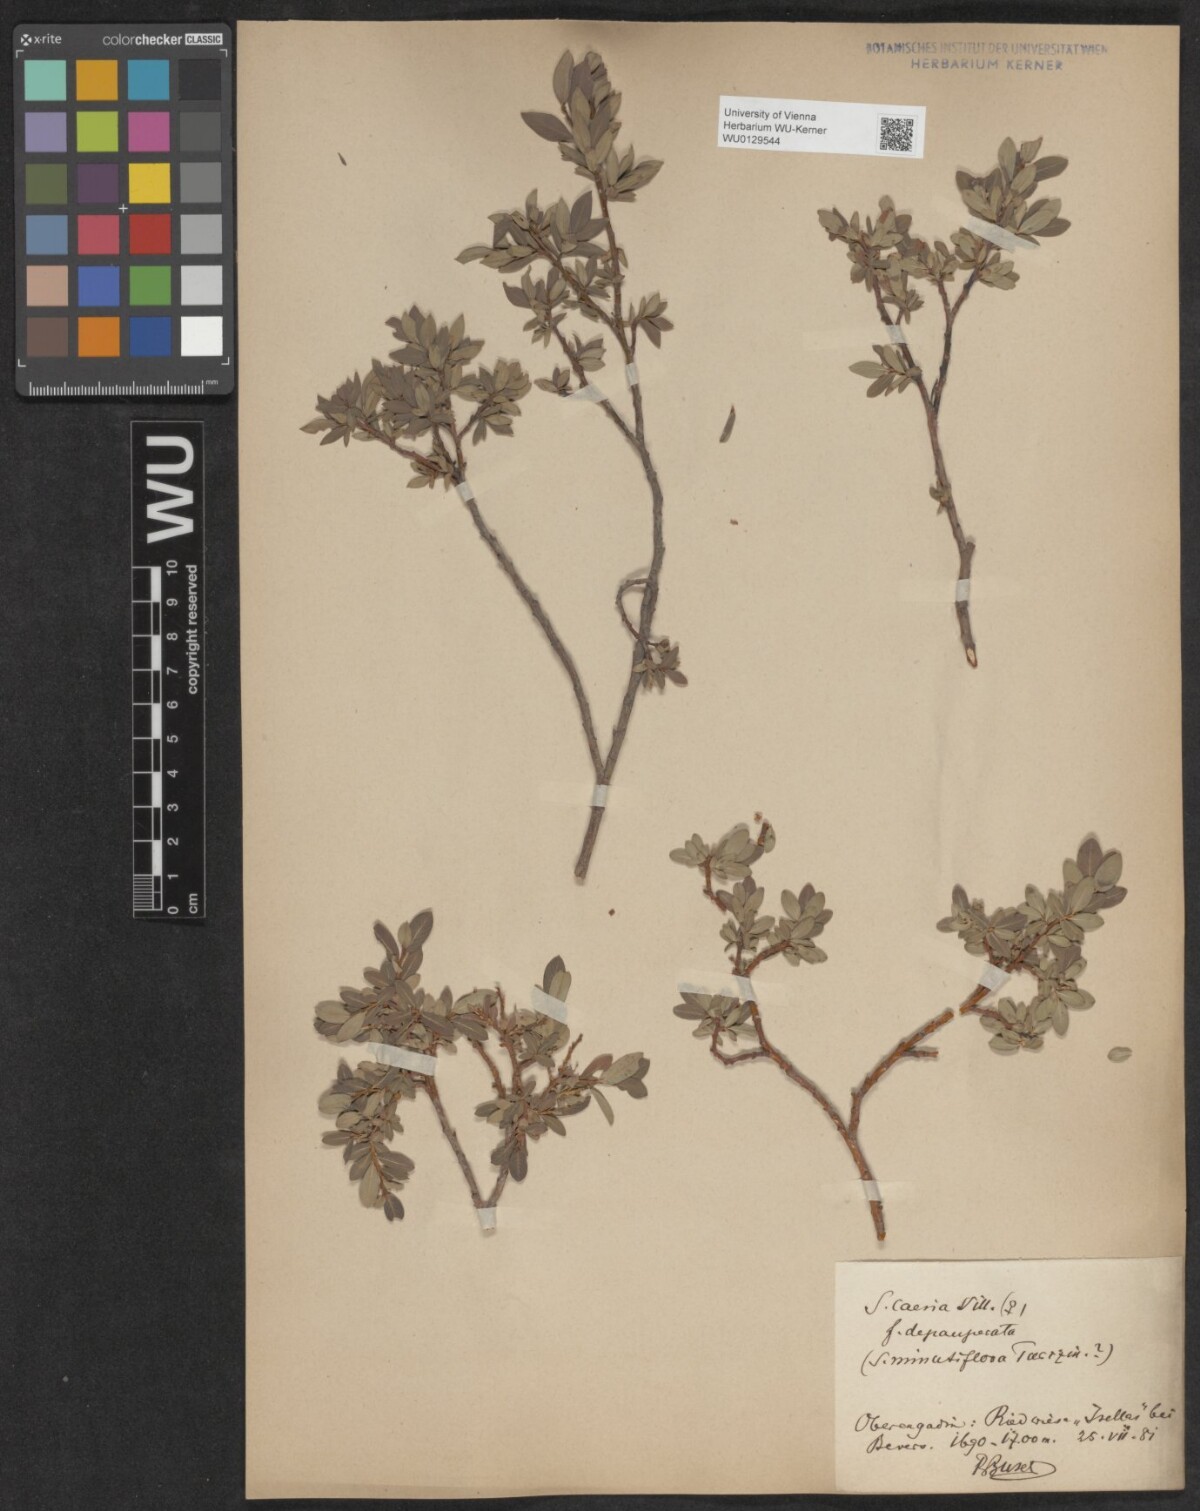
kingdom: Plantae
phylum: Tracheophyta
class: Magnoliopsida
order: Malpighiales
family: Salicaceae
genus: Salix
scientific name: Salix caesia
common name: Blue willow
